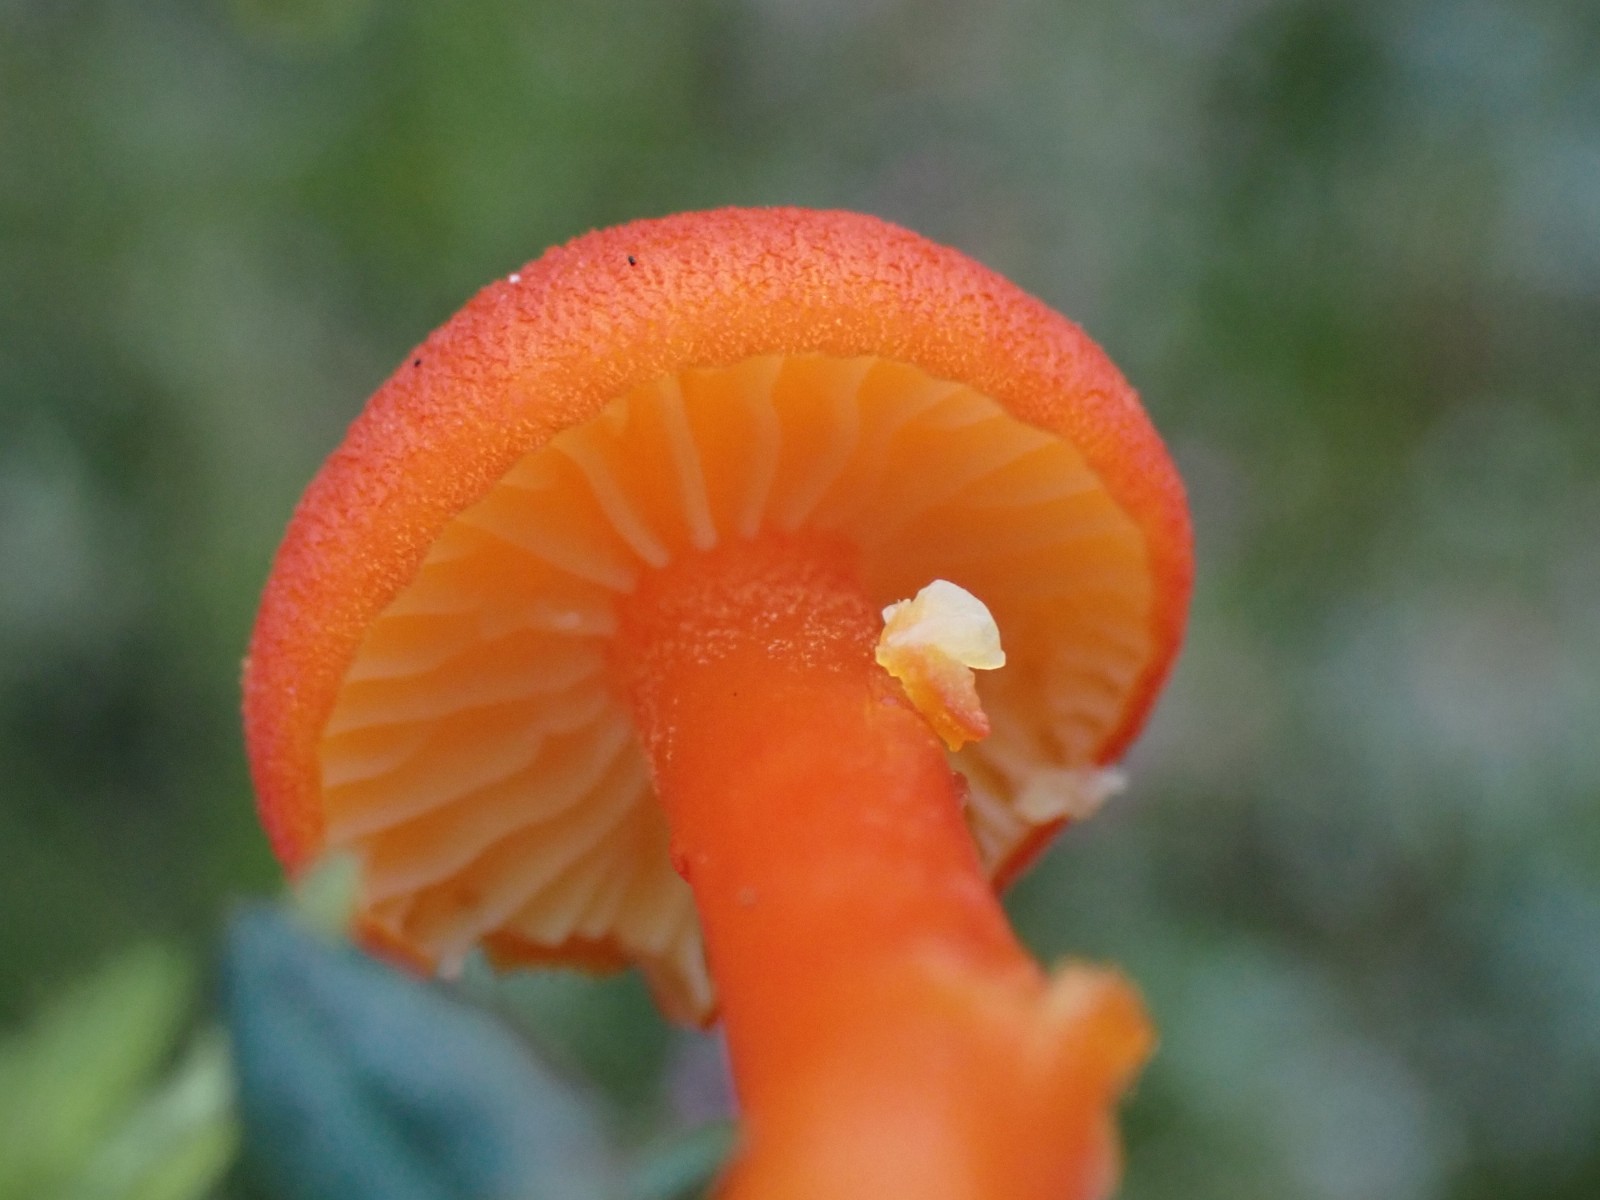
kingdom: Fungi
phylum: Basidiomycota
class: Agaricomycetes
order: Agaricales
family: Hygrophoraceae
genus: Hygrocybe
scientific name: Hygrocybe substrangulata
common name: kær-vokshat
